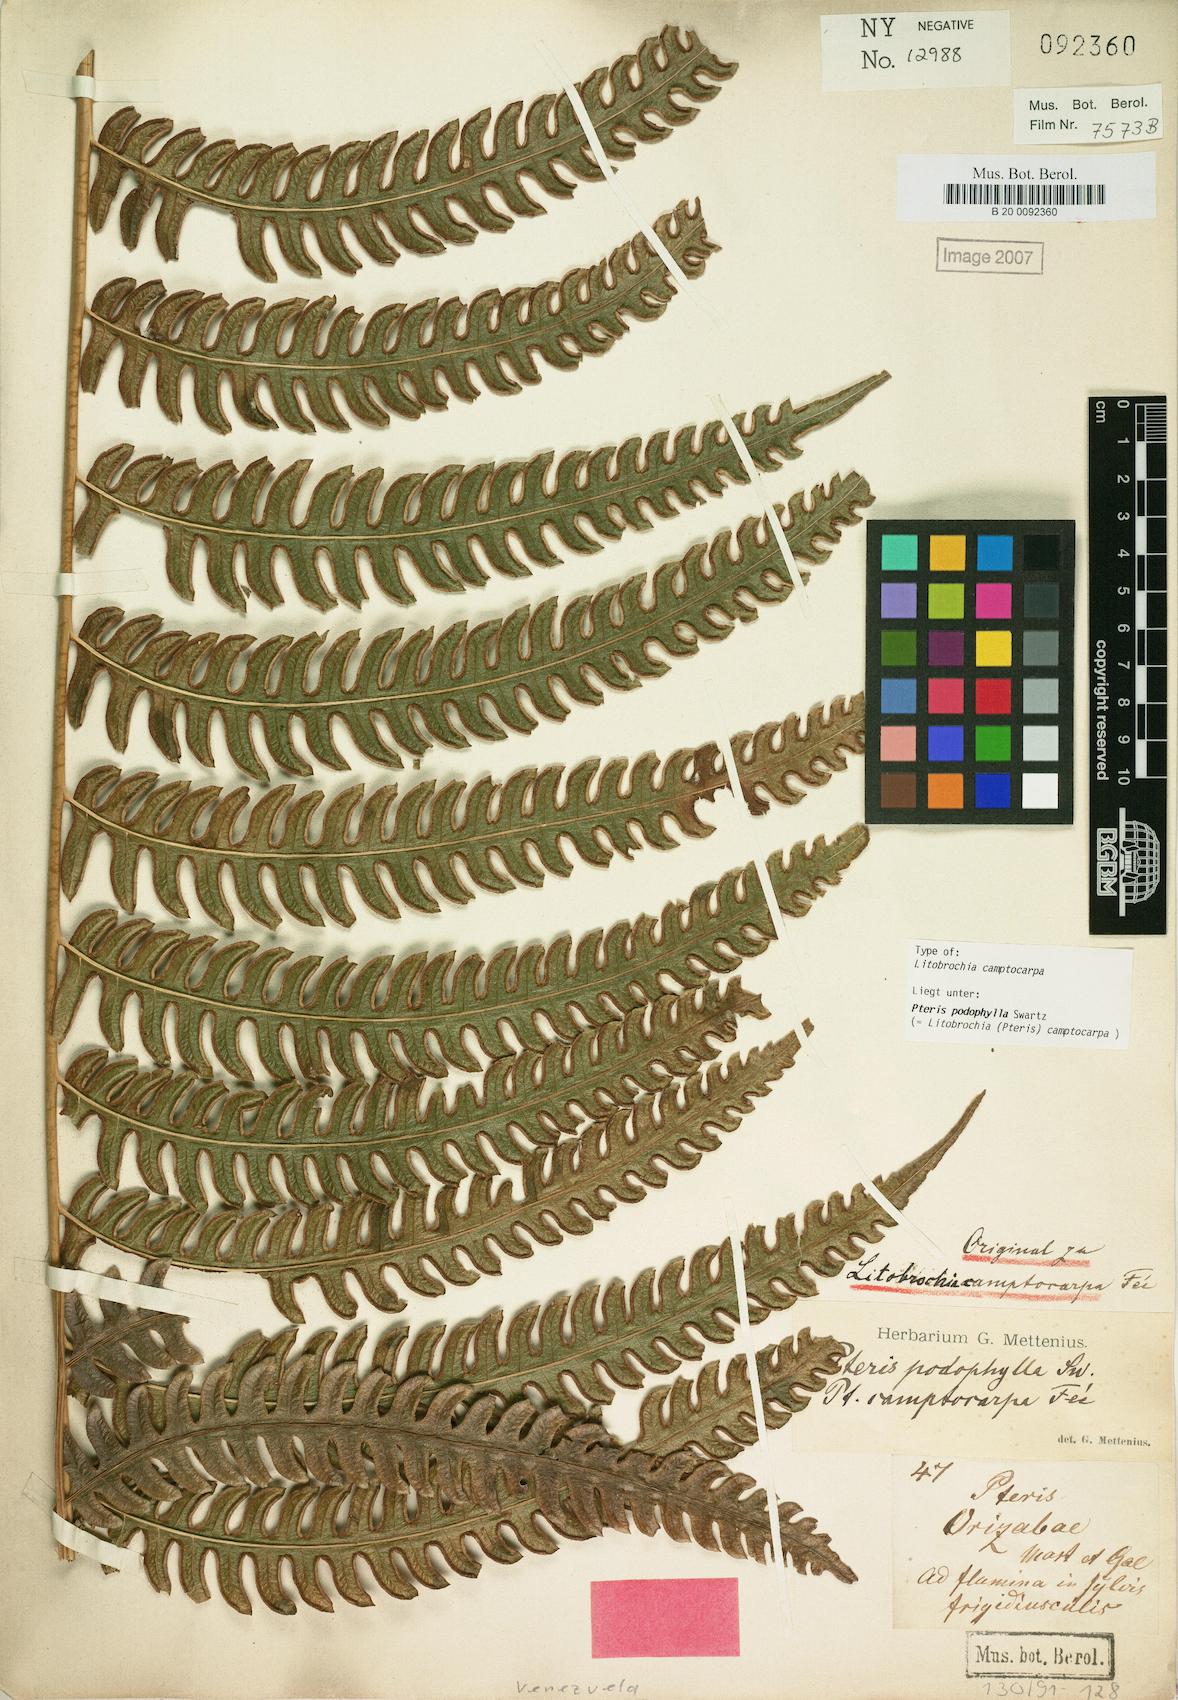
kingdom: Plantae
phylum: Tracheophyta
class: Polypodiopsida
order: Polypodiales
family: Pteridaceae
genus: Pteris
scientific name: Pteris podophylla
